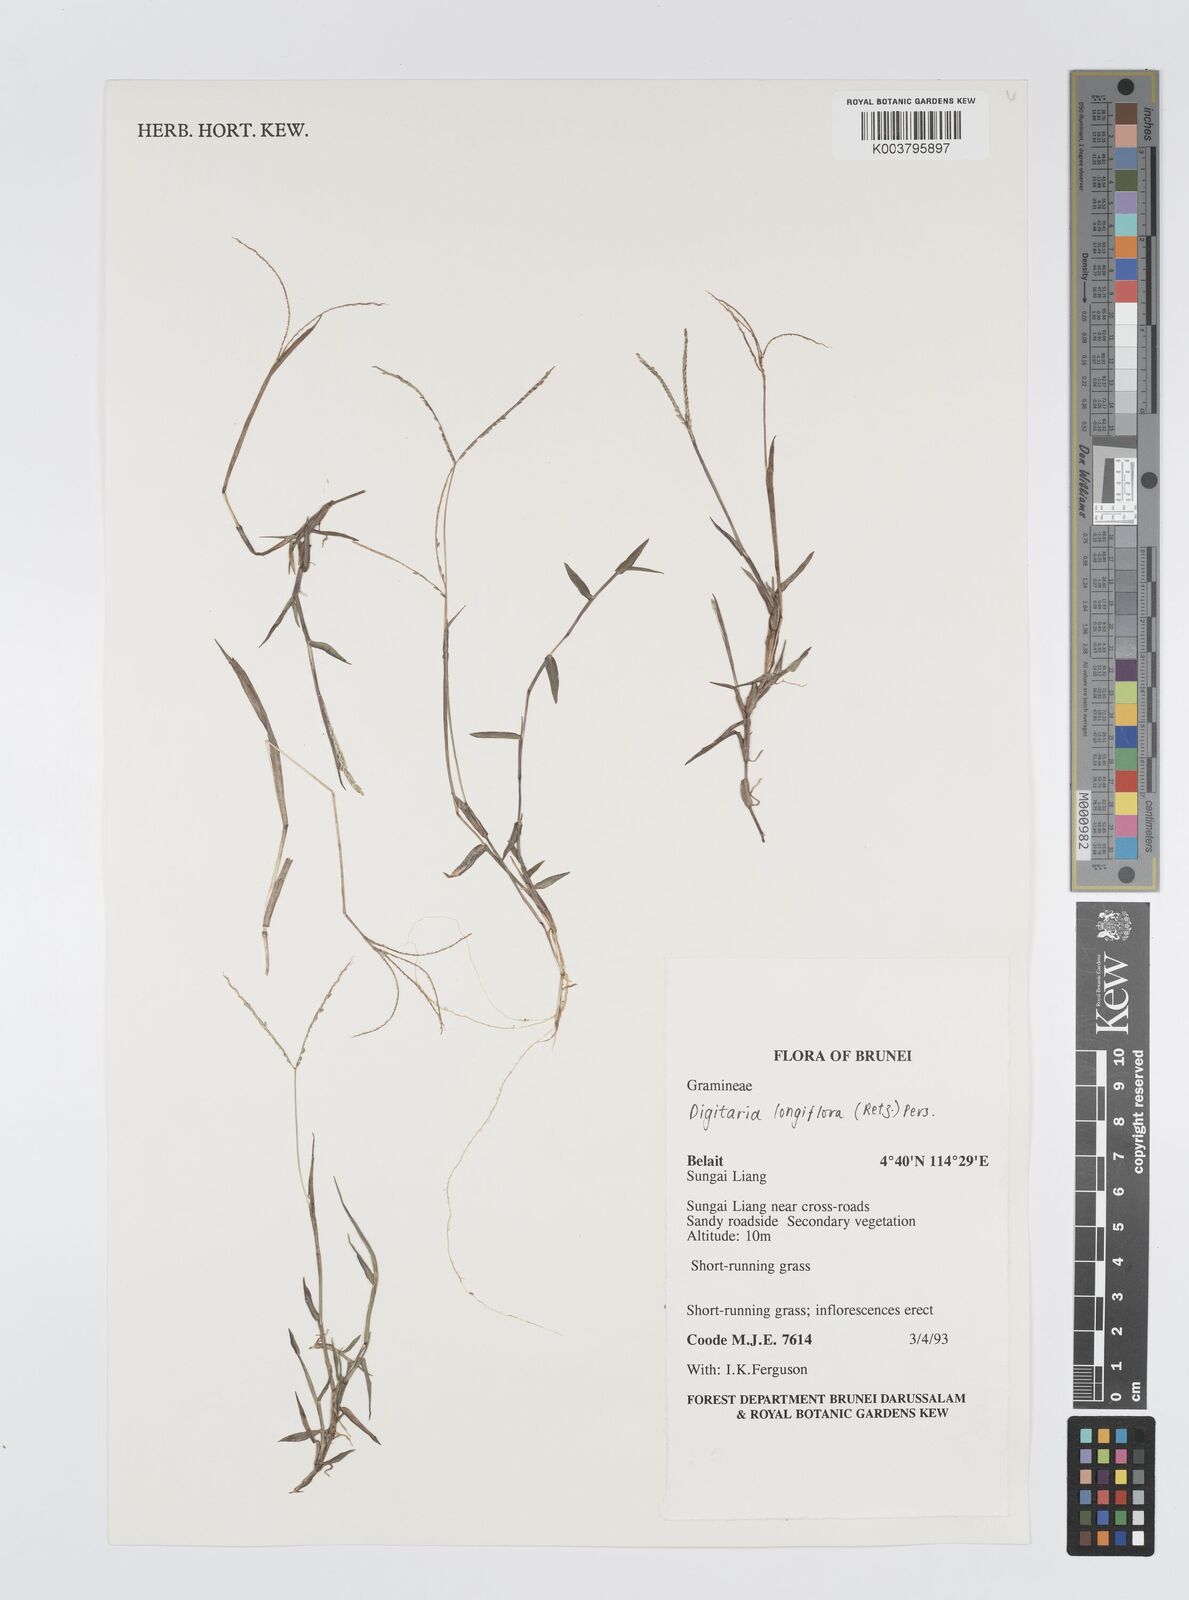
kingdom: Plantae
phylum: Tracheophyta
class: Liliopsida
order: Poales
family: Poaceae
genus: Digitaria
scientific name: Digitaria longiflora
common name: Wire crabgrass
